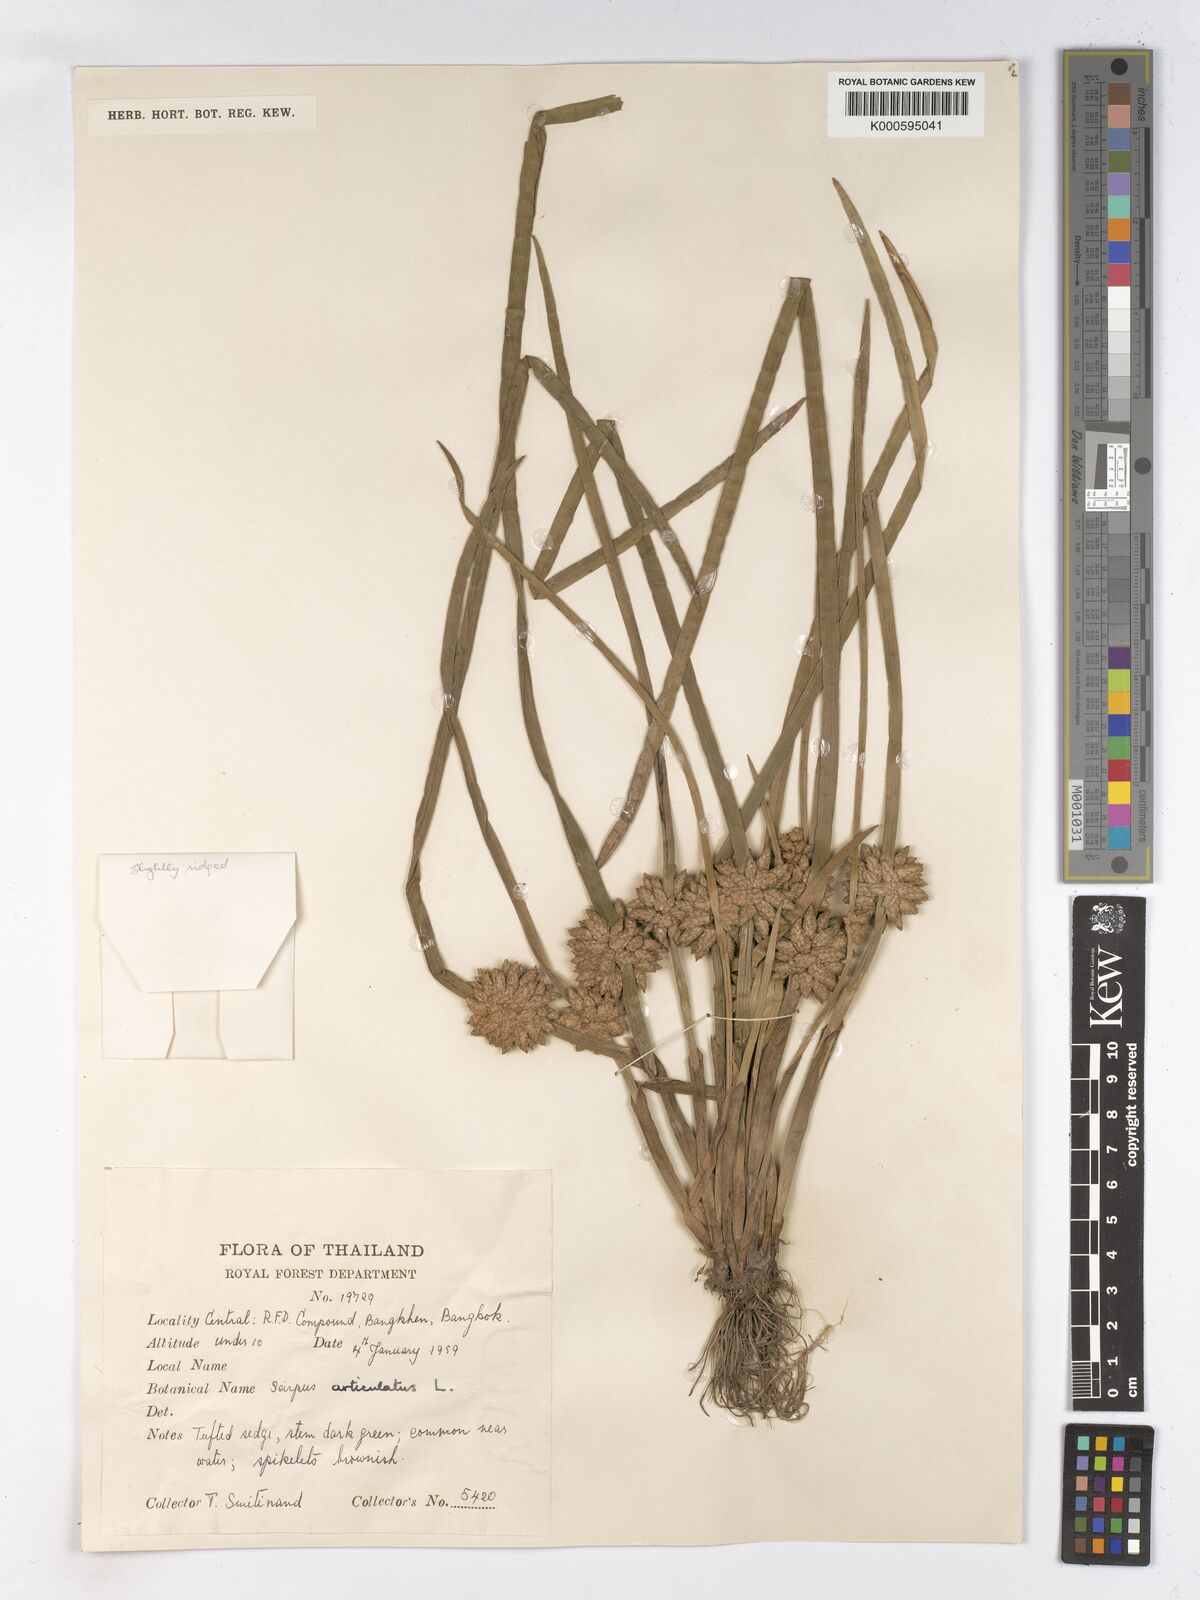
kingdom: Plantae
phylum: Tracheophyta
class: Liliopsida
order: Poales
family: Cyperaceae
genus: Schoenoplectiella
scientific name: Schoenoplectiella articulata
